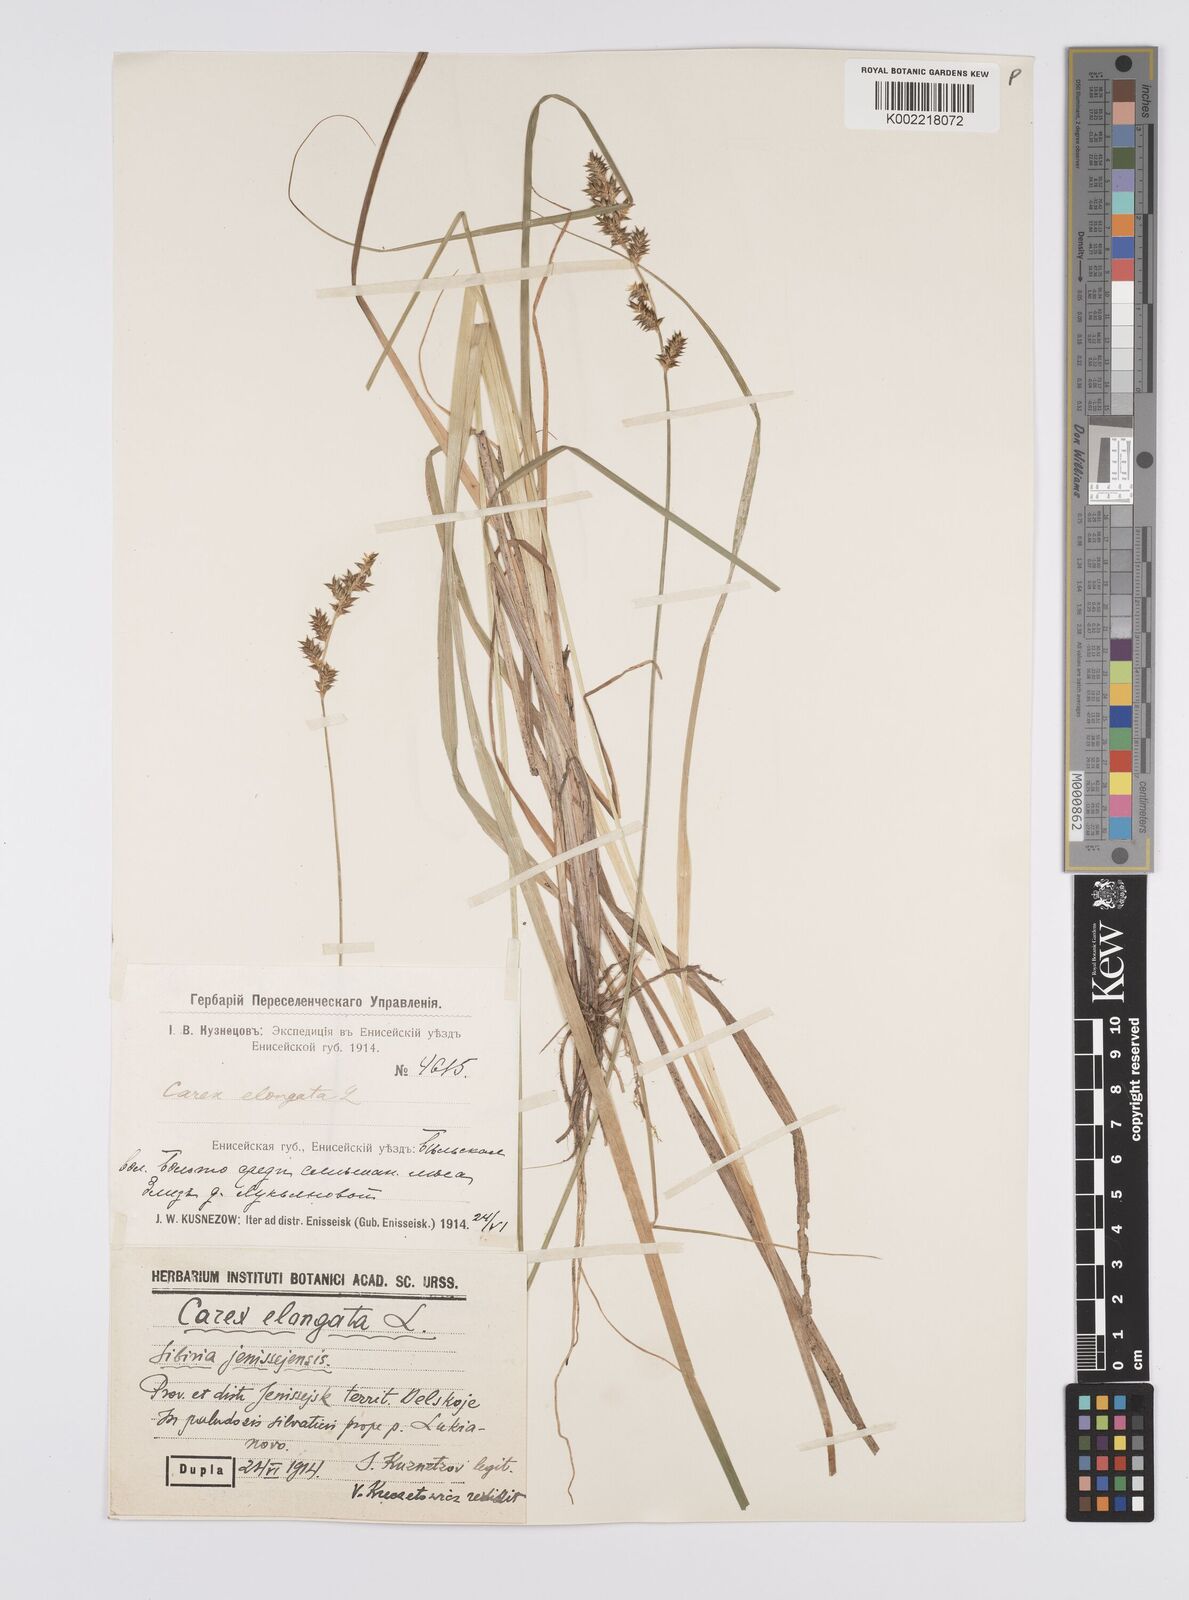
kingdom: Plantae
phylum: Tracheophyta
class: Liliopsida
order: Poales
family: Cyperaceae
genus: Carex
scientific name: Carex elongata
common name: Elongated sedge
